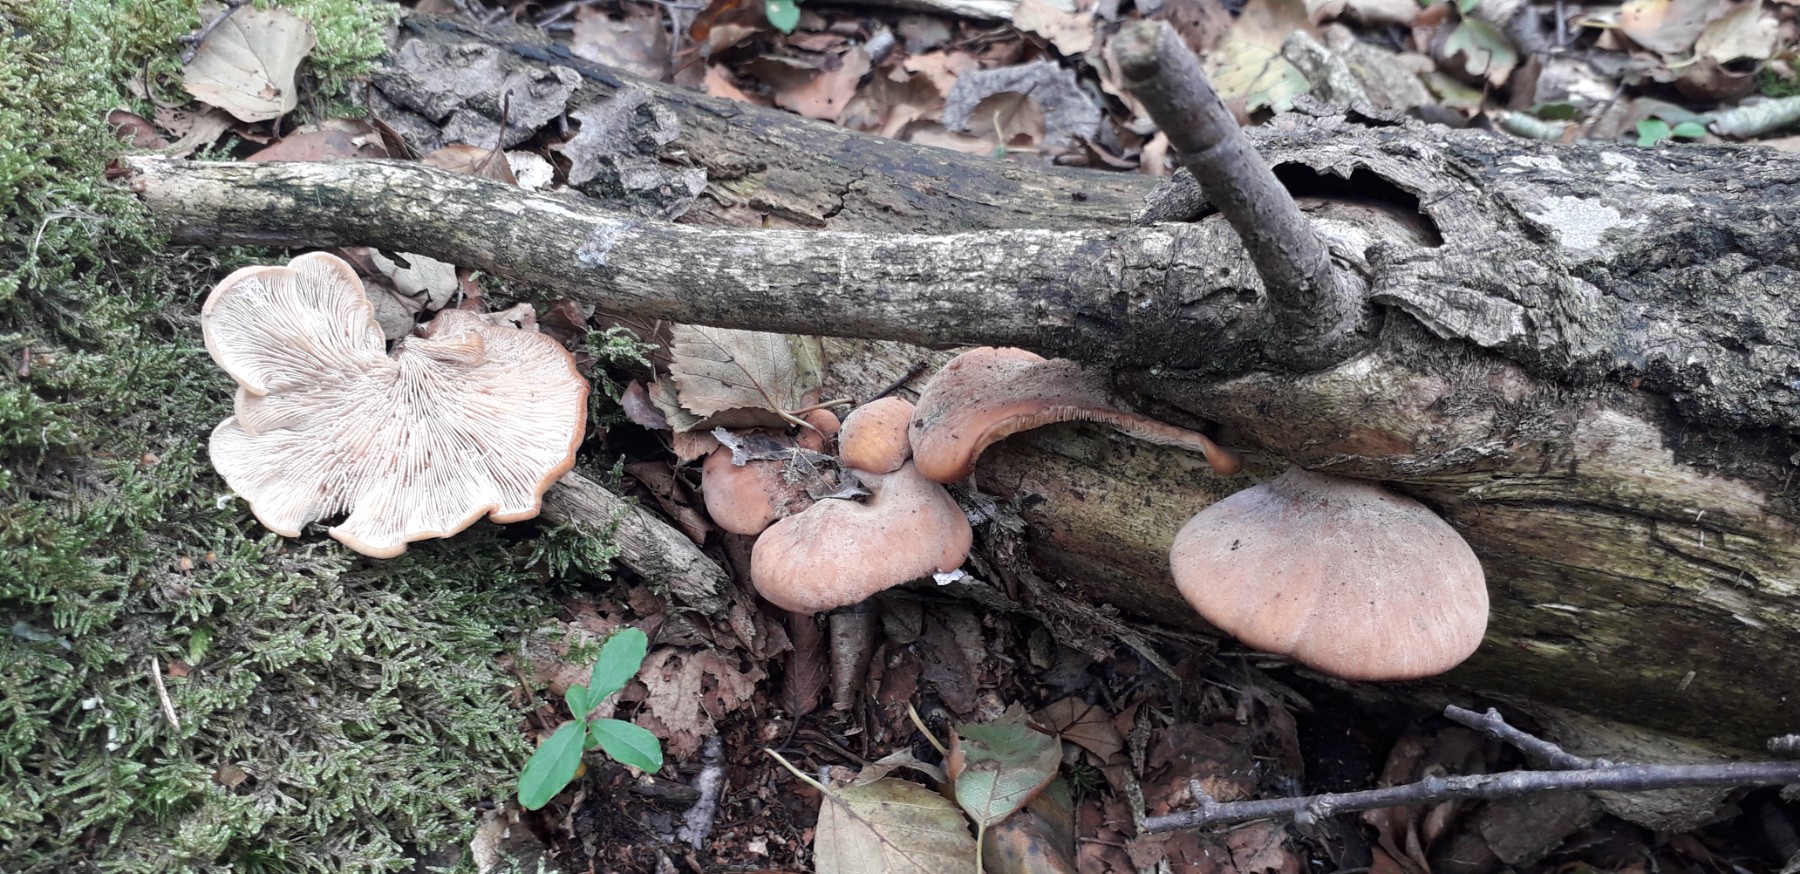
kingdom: Fungi
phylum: Basidiomycota
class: Agaricomycetes
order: Russulales
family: Auriscalpiaceae
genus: Lentinellus
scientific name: Lentinellus ursinus
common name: børstehåret savbladhat
